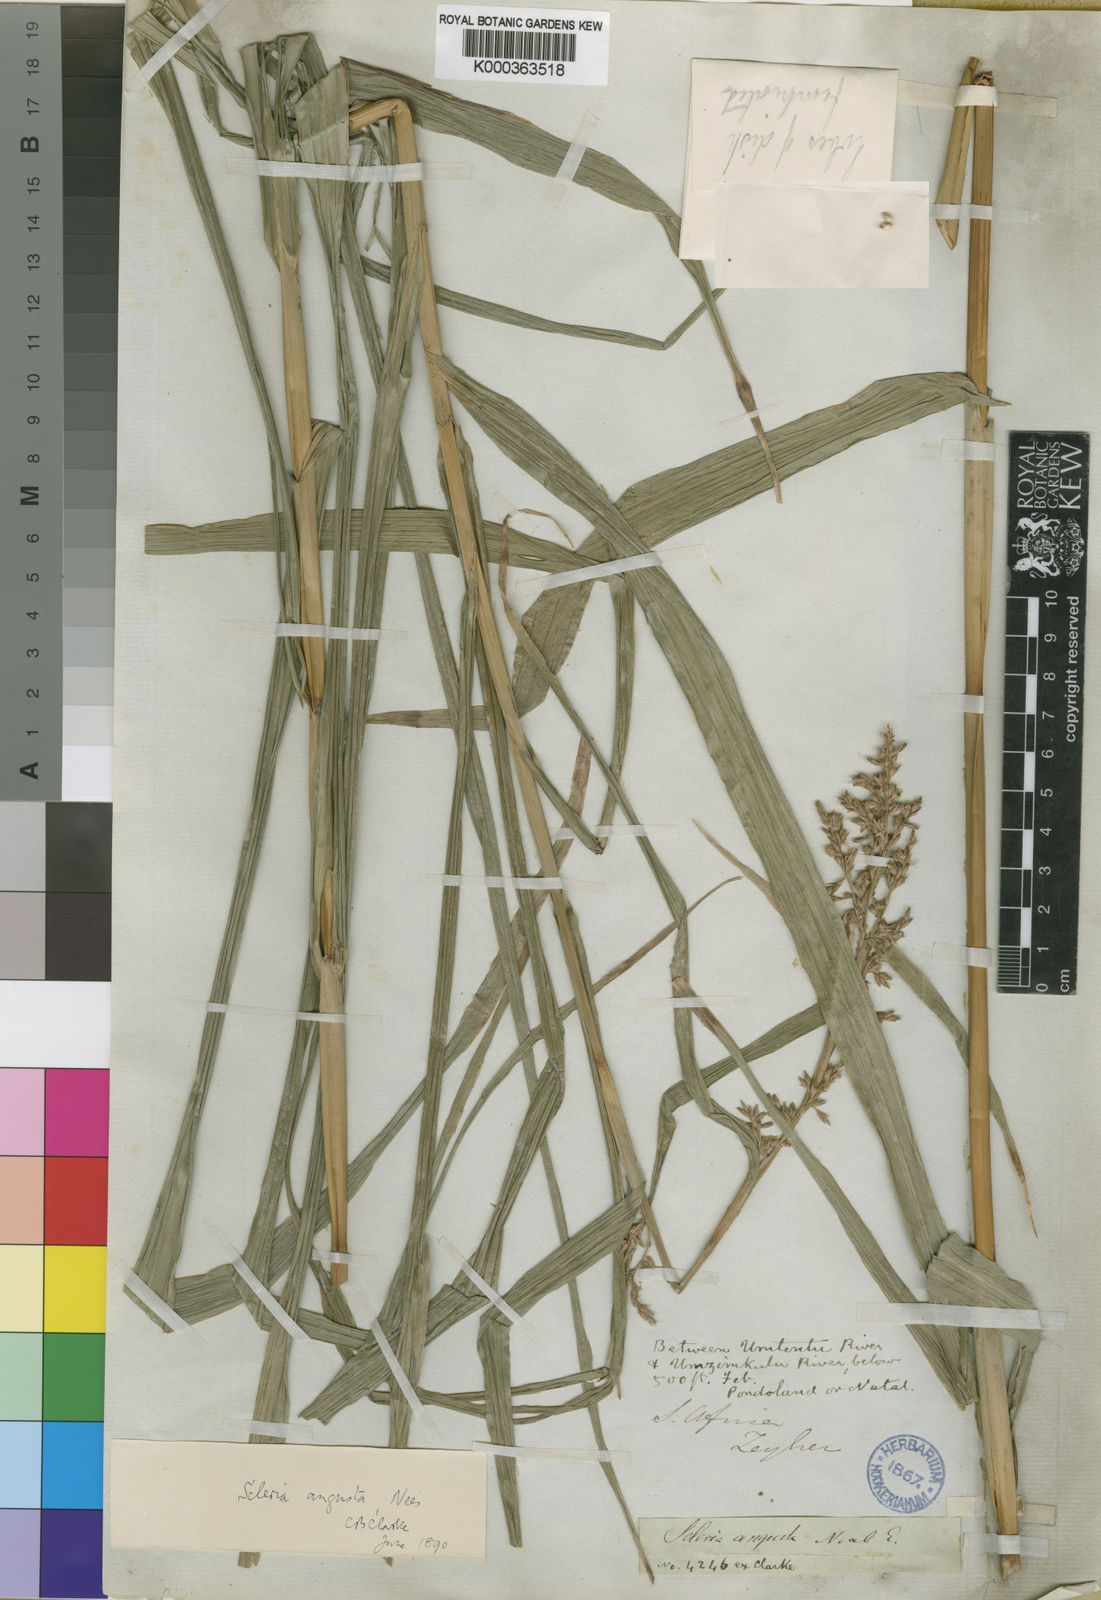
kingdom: Plantae
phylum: Tracheophyta
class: Liliopsida
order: Poales
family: Cyperaceae
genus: Scleria
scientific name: Scleria angusta
